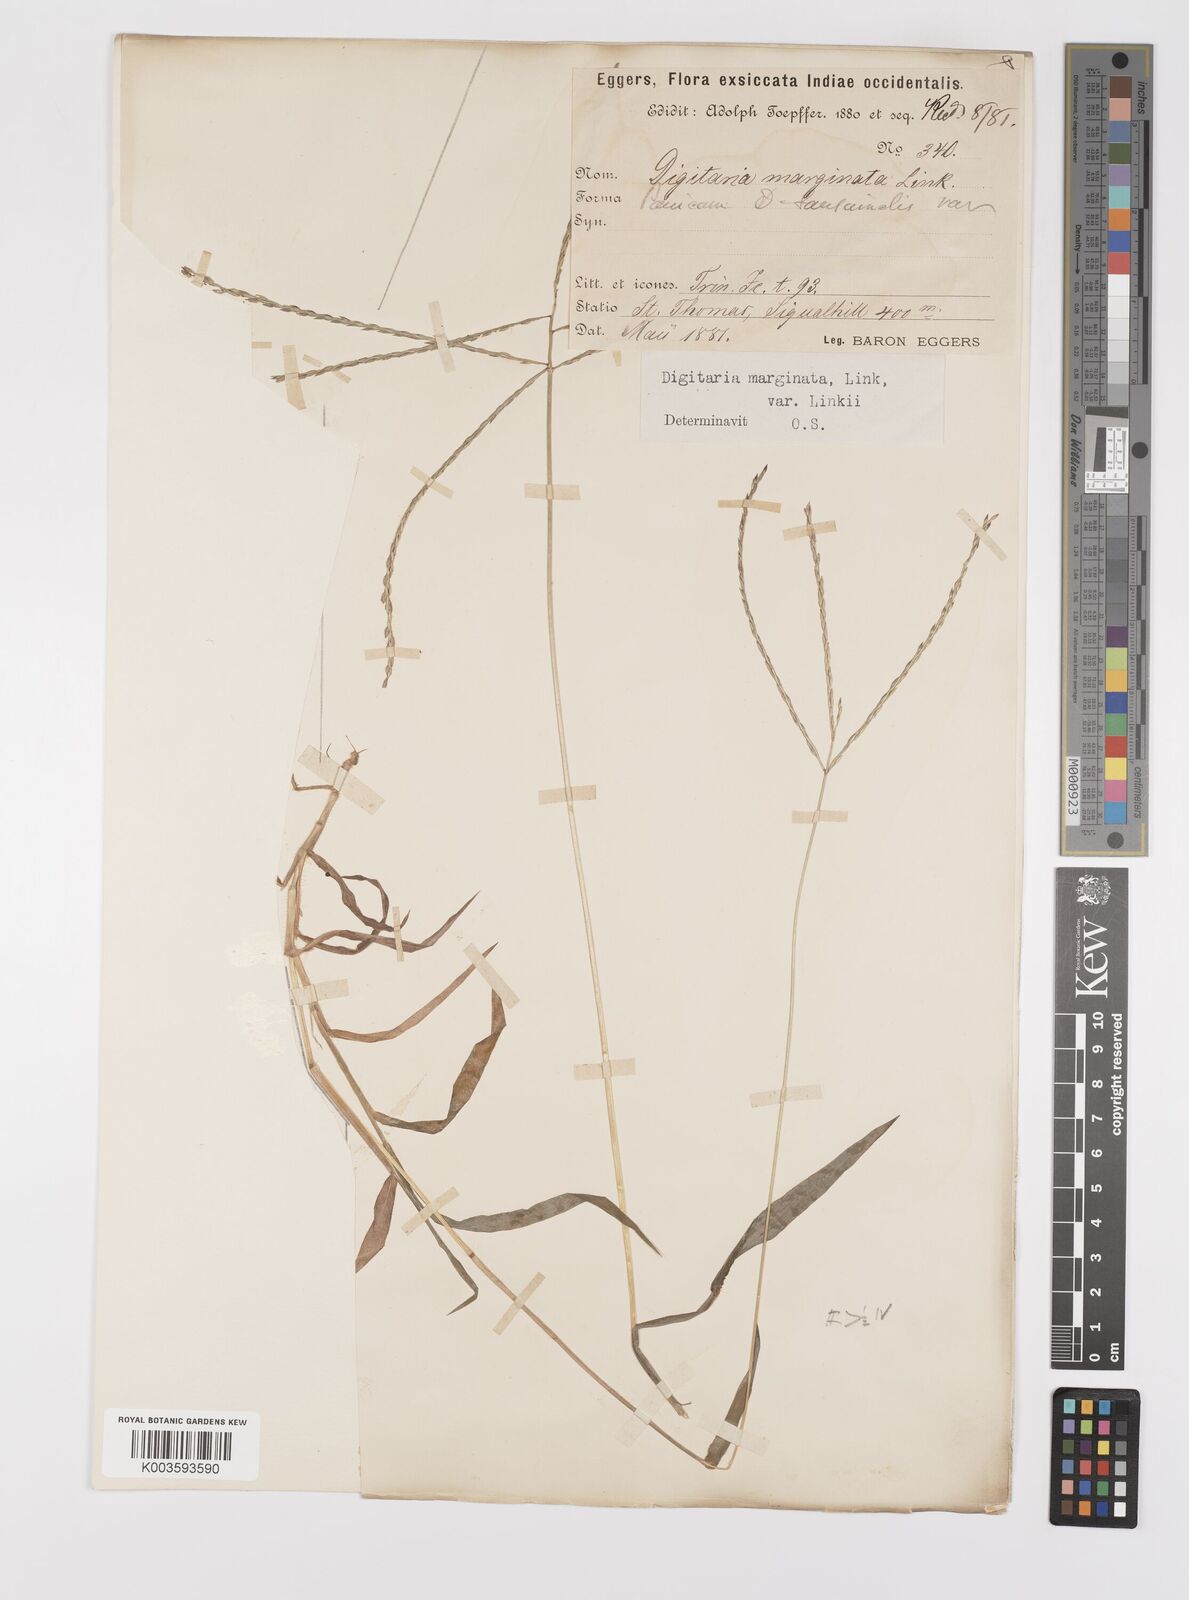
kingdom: Plantae
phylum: Tracheophyta
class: Liliopsida
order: Poales
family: Poaceae
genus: Digitaria
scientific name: Digitaria ciliaris
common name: Tropical finger-grass
